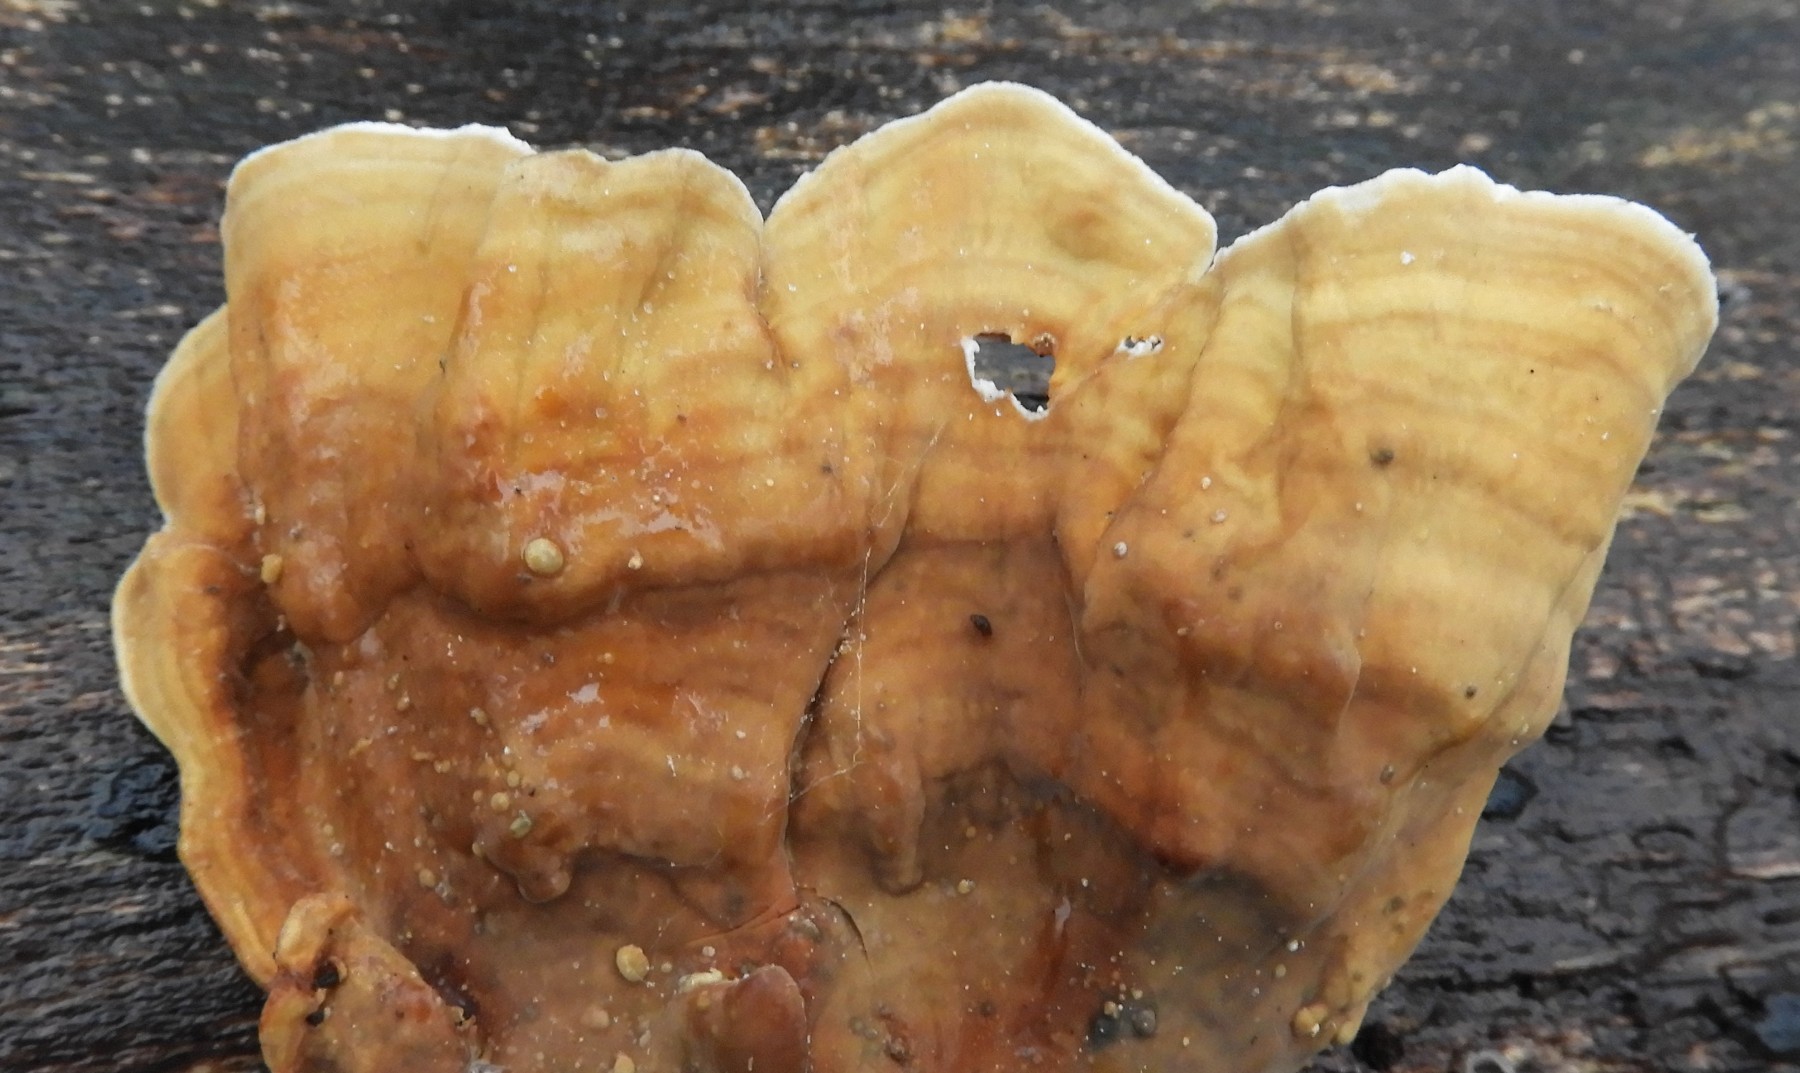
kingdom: Fungi
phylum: Basidiomycota
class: Agaricomycetes
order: Russulales
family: Stereaceae
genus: Stereum
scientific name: Stereum subtomentosum
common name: smuk lædersvamp
